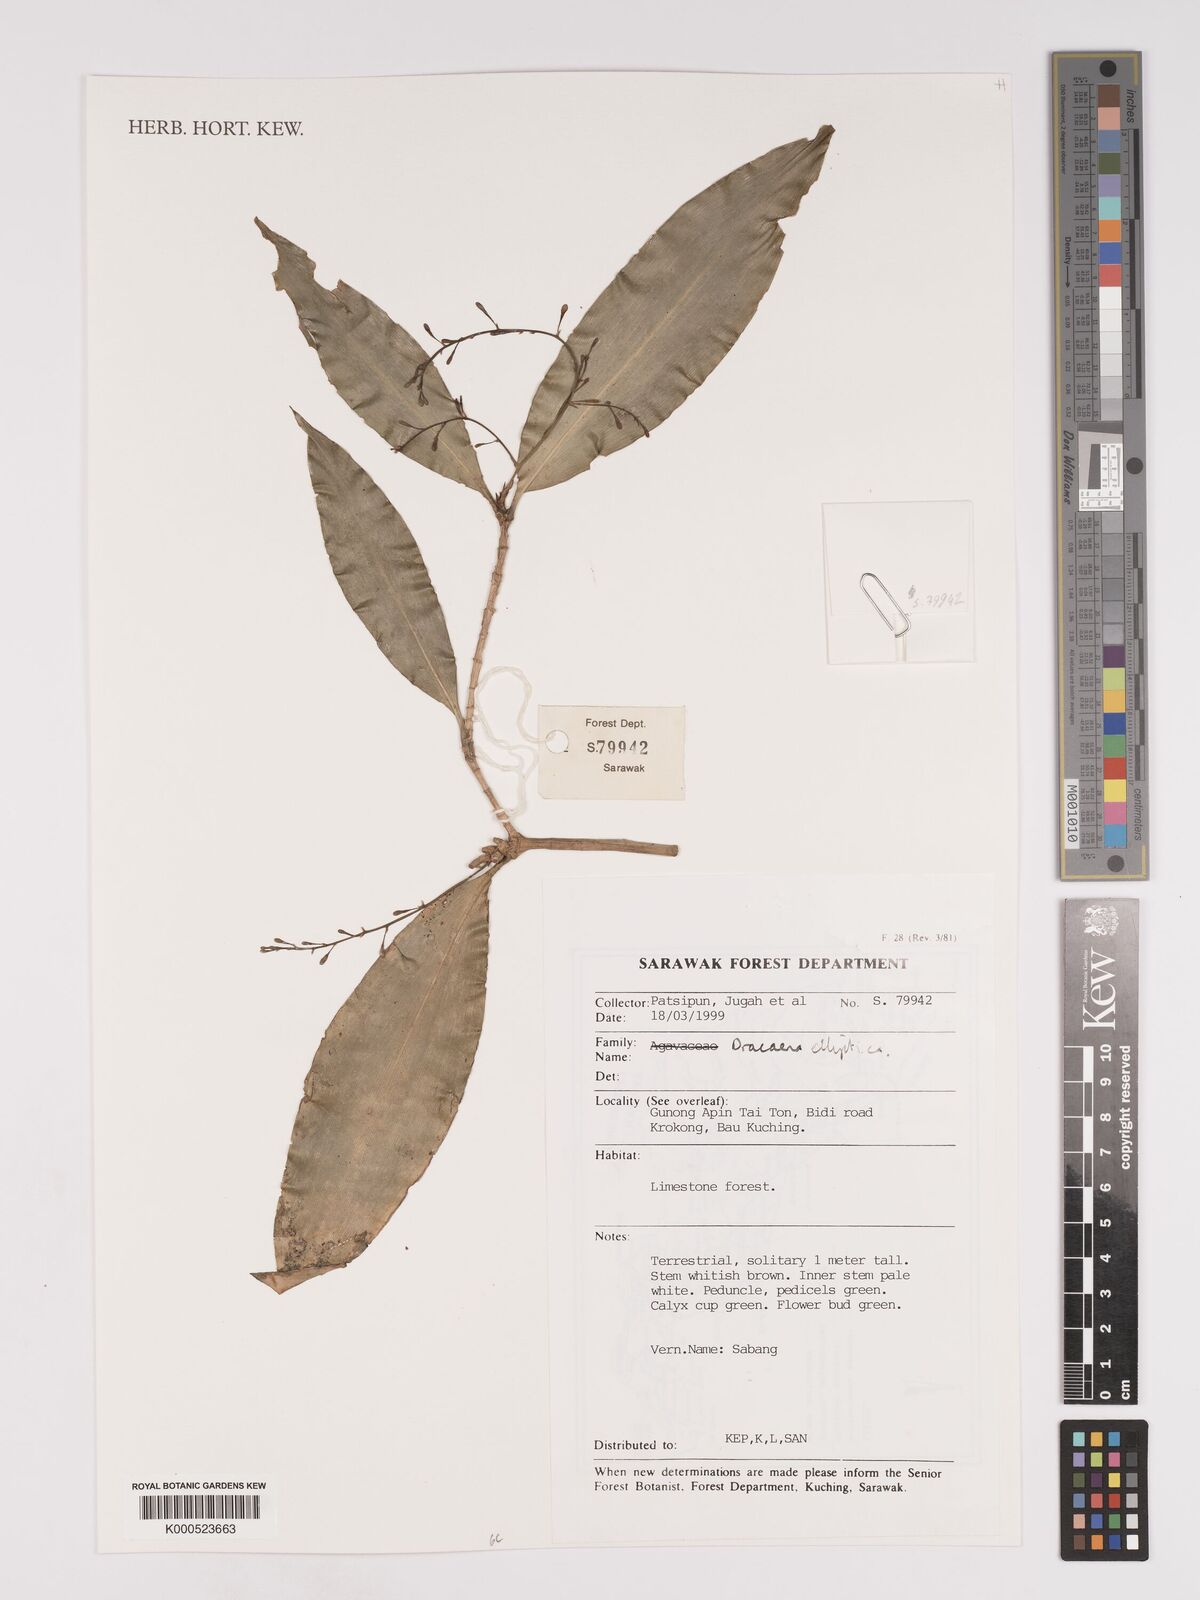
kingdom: Plantae
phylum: Tracheophyta
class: Liliopsida
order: Asparagales
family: Asparagaceae
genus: Dracaena
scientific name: Dracaena elliptica
